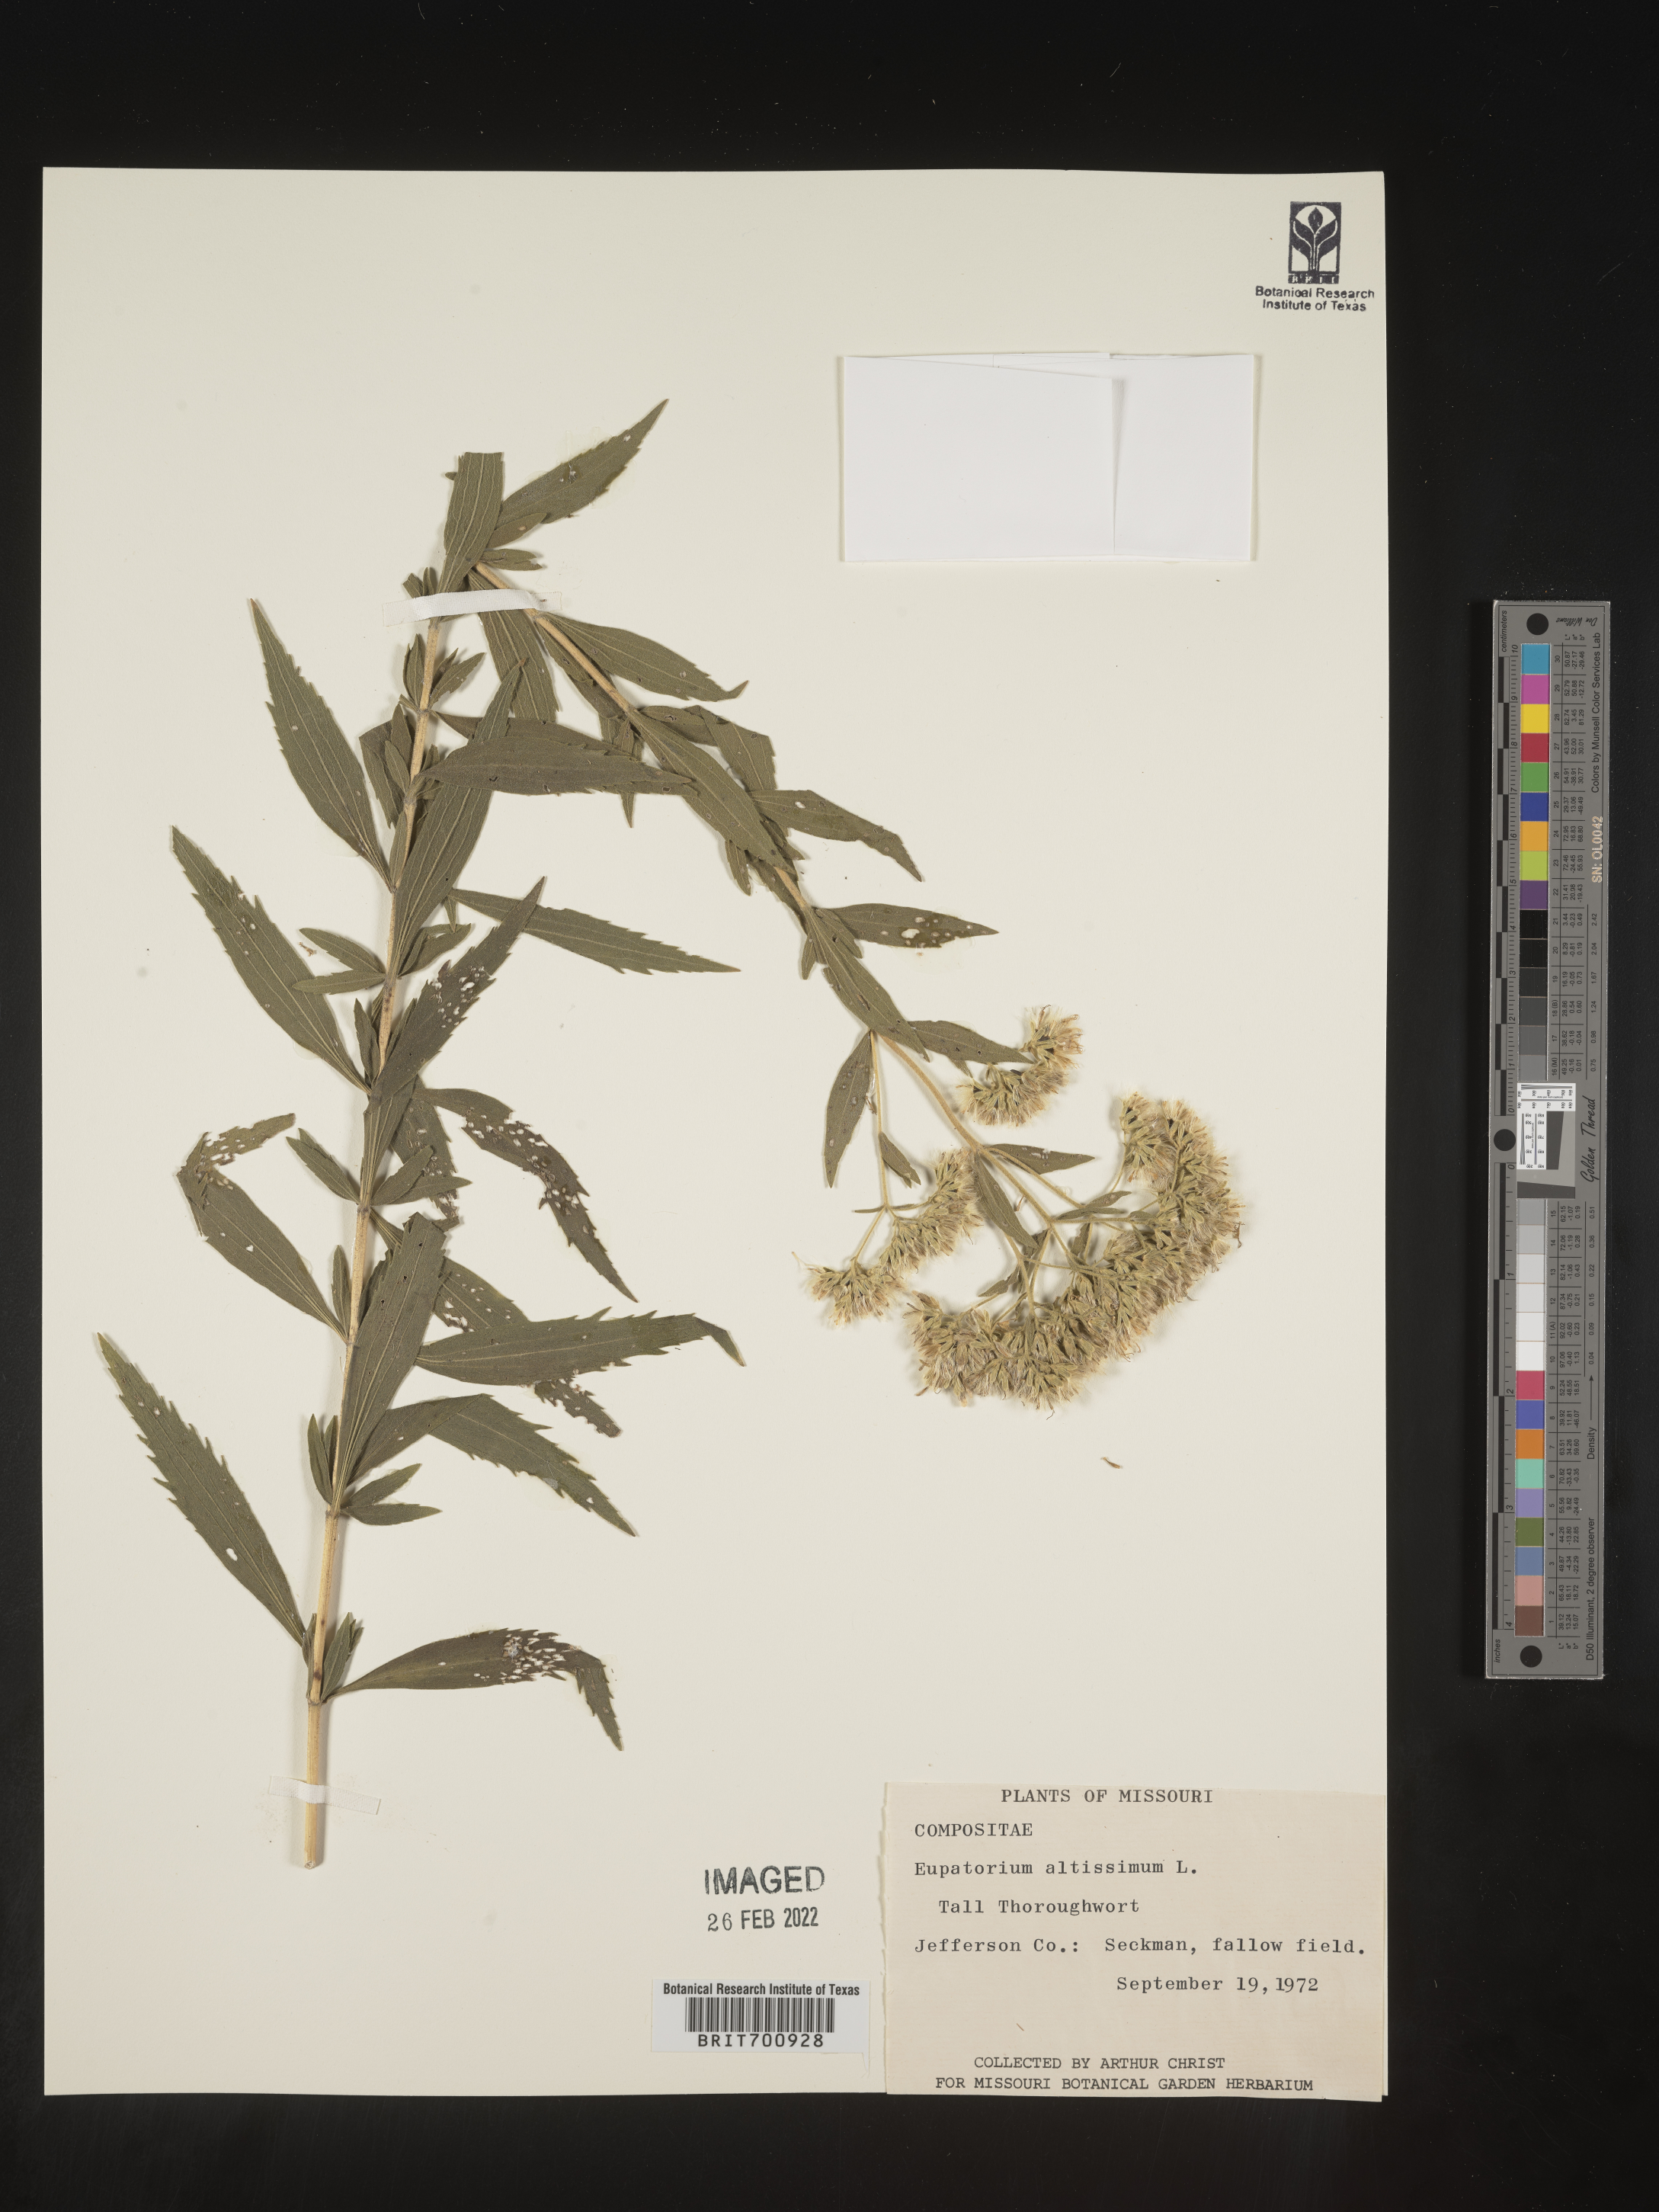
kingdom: Plantae
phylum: Tracheophyta
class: Magnoliopsida
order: Asterales
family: Asteraceae
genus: Eupatorium
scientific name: Eupatorium altissimum
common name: Tall thoroughwort
